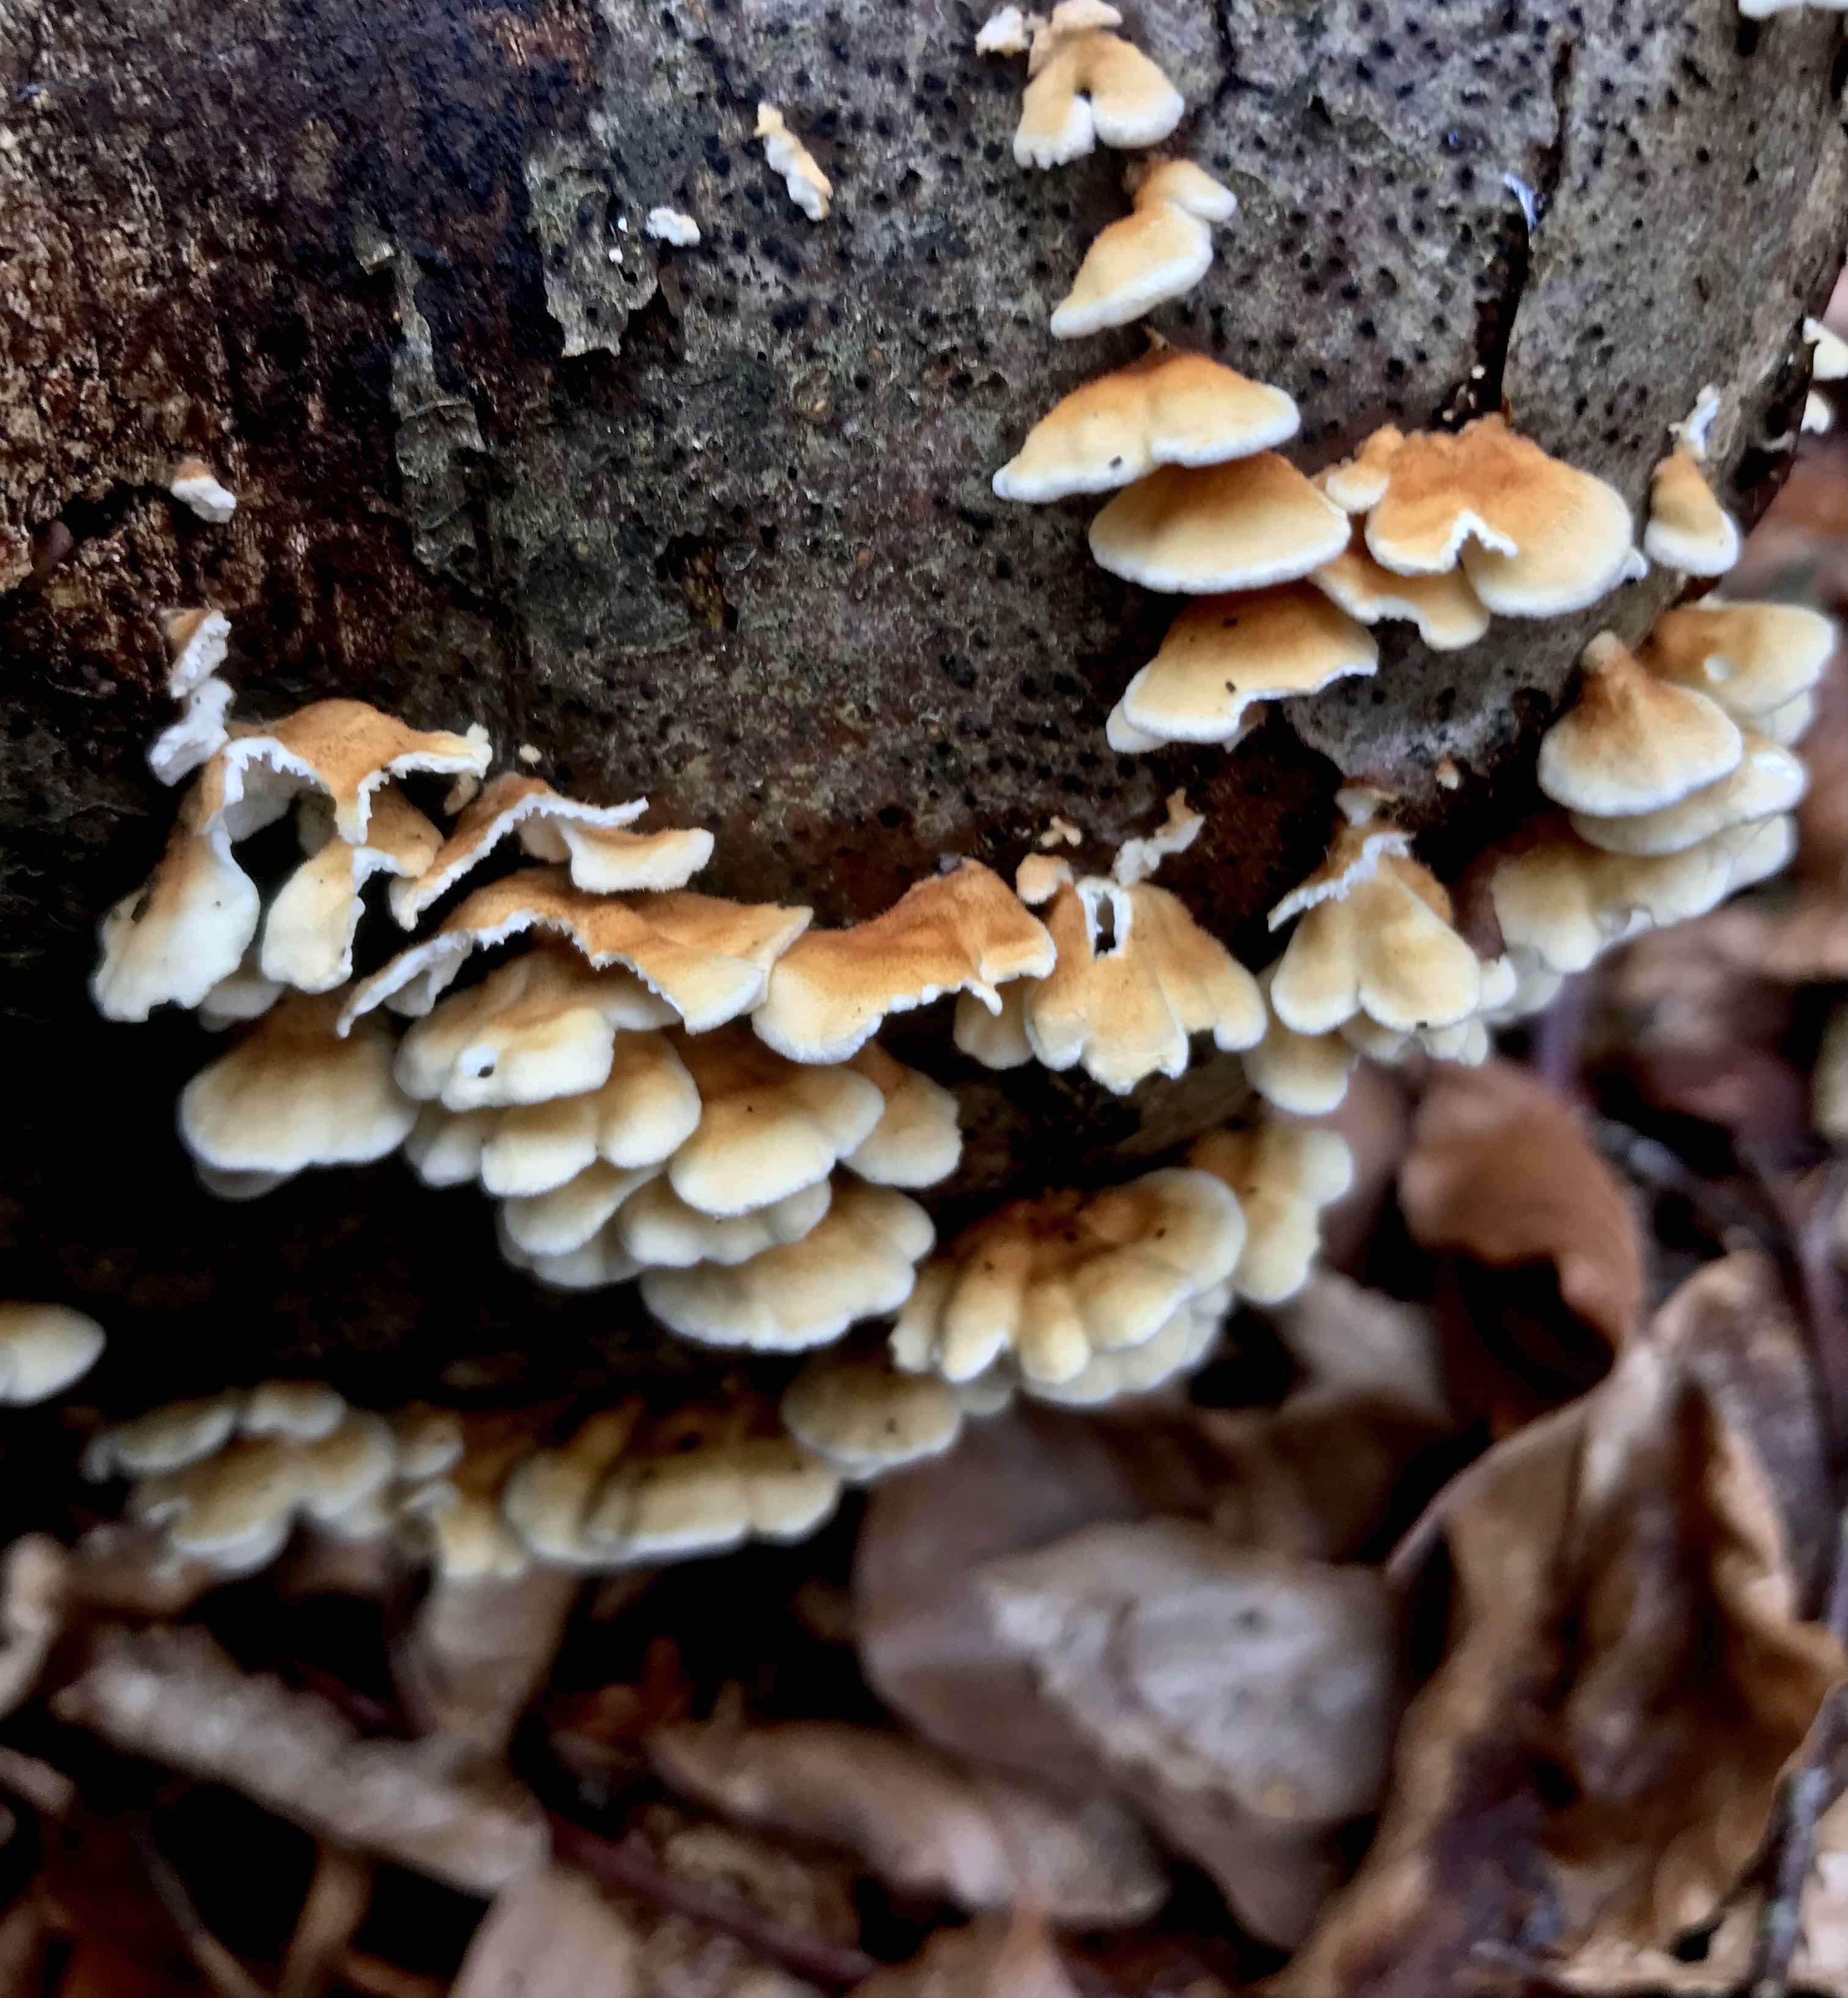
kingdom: Fungi
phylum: Basidiomycota
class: Agaricomycetes
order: Amylocorticiales
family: Amylocorticiaceae
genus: Plicaturopsis
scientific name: Plicaturopsis crispa
